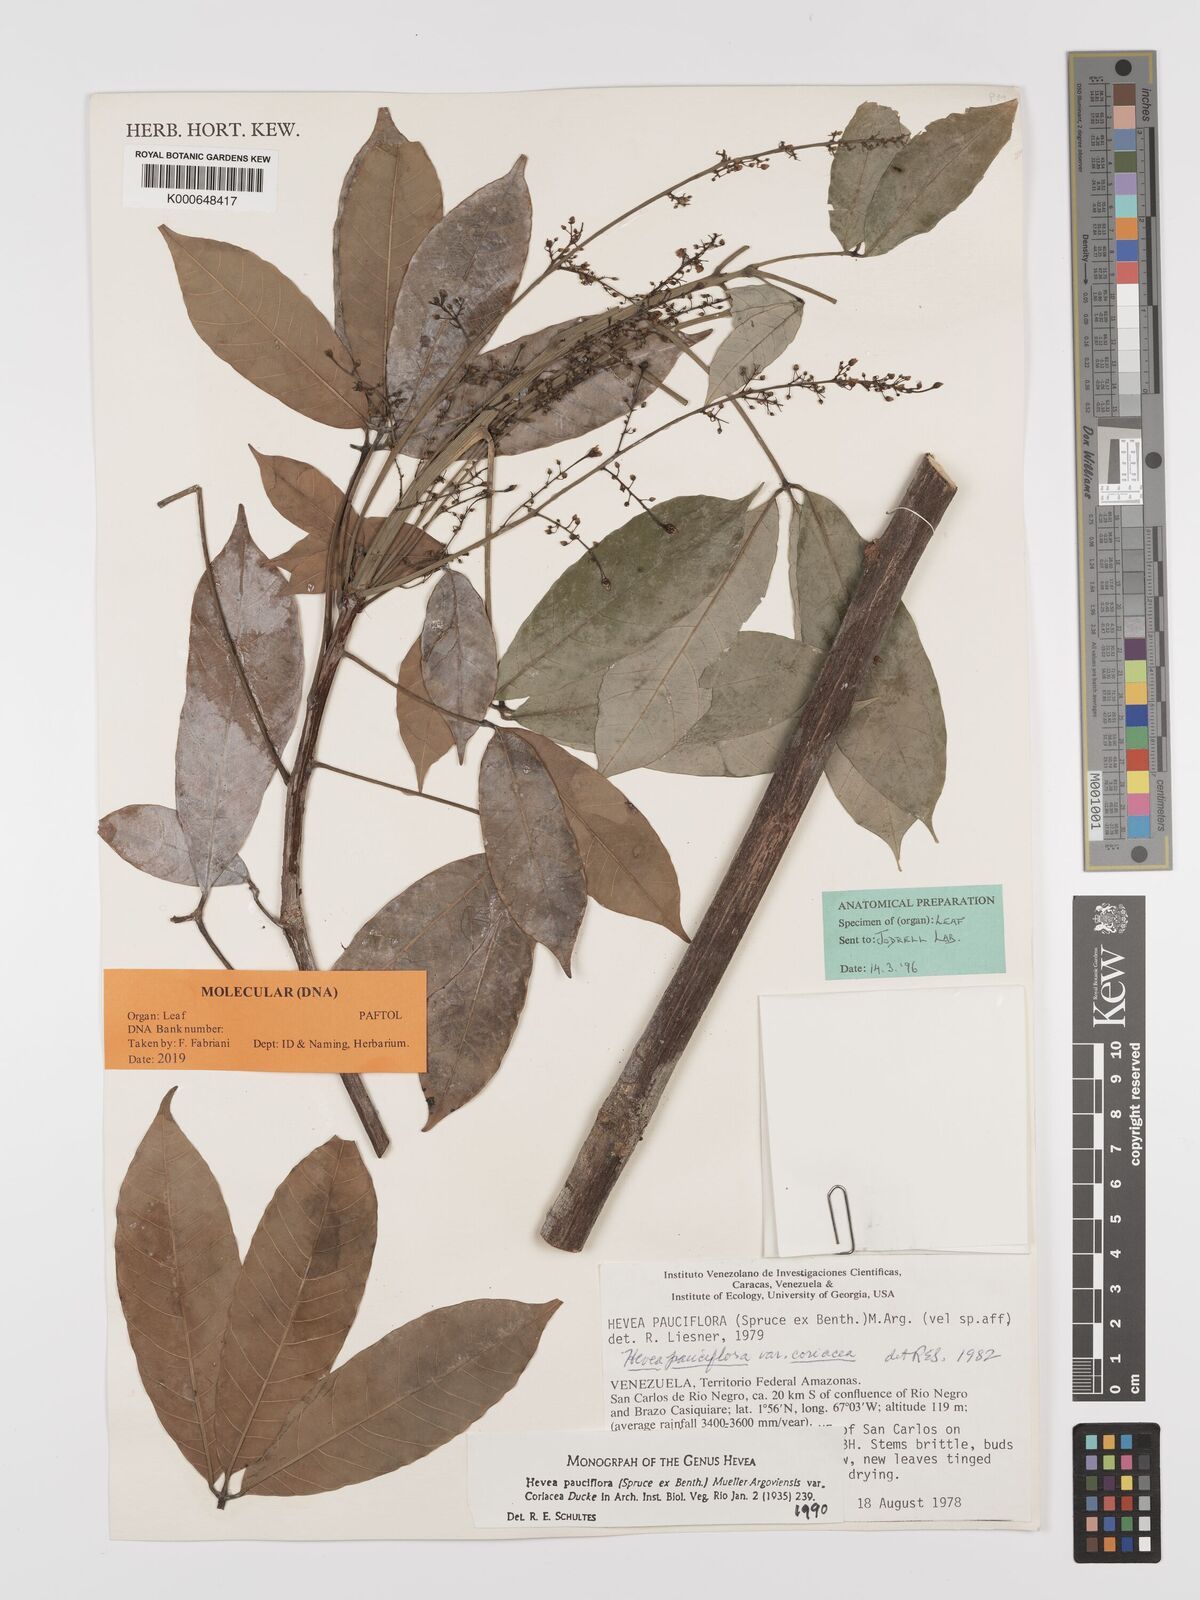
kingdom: Plantae
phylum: Tracheophyta
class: Magnoliopsida
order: Malpighiales
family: Euphorbiaceae
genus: Hevea
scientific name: Hevea pauciflora
